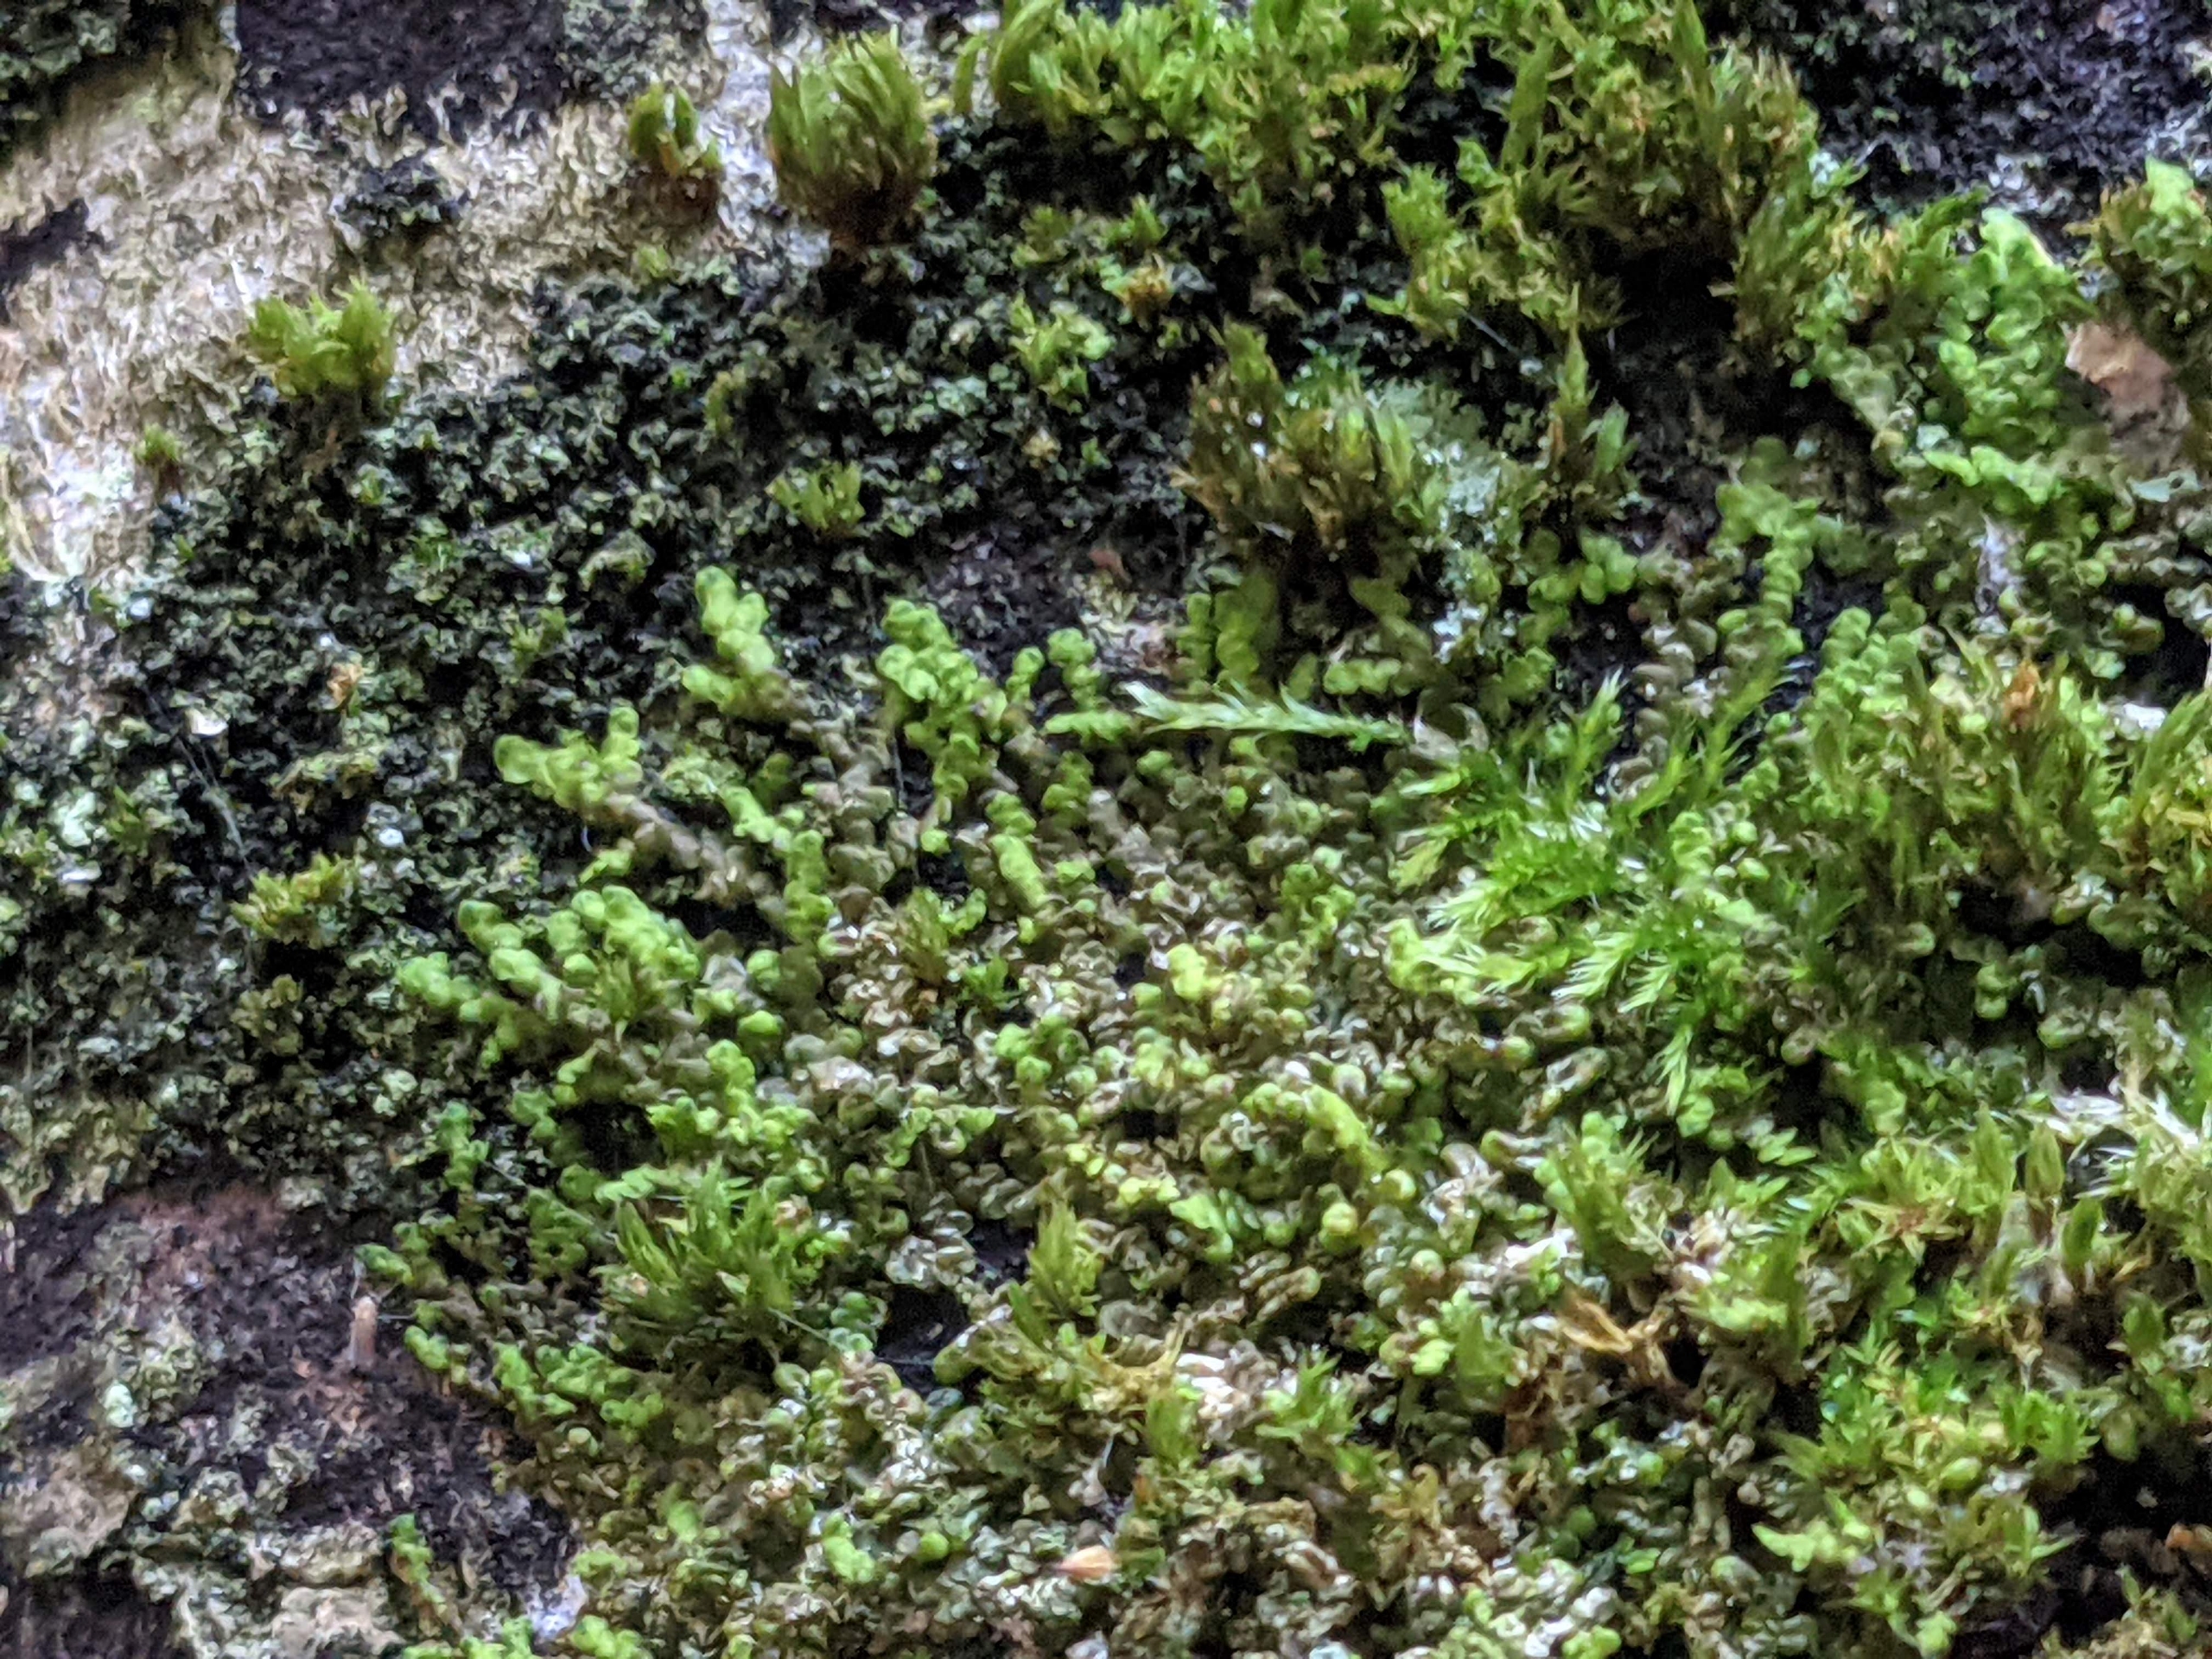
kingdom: Plantae
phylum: Marchantiophyta
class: Jungermanniopsida
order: Porellales
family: Frullaniaceae
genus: Frullania
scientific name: Frullania dilatata
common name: Mat bronzemos
